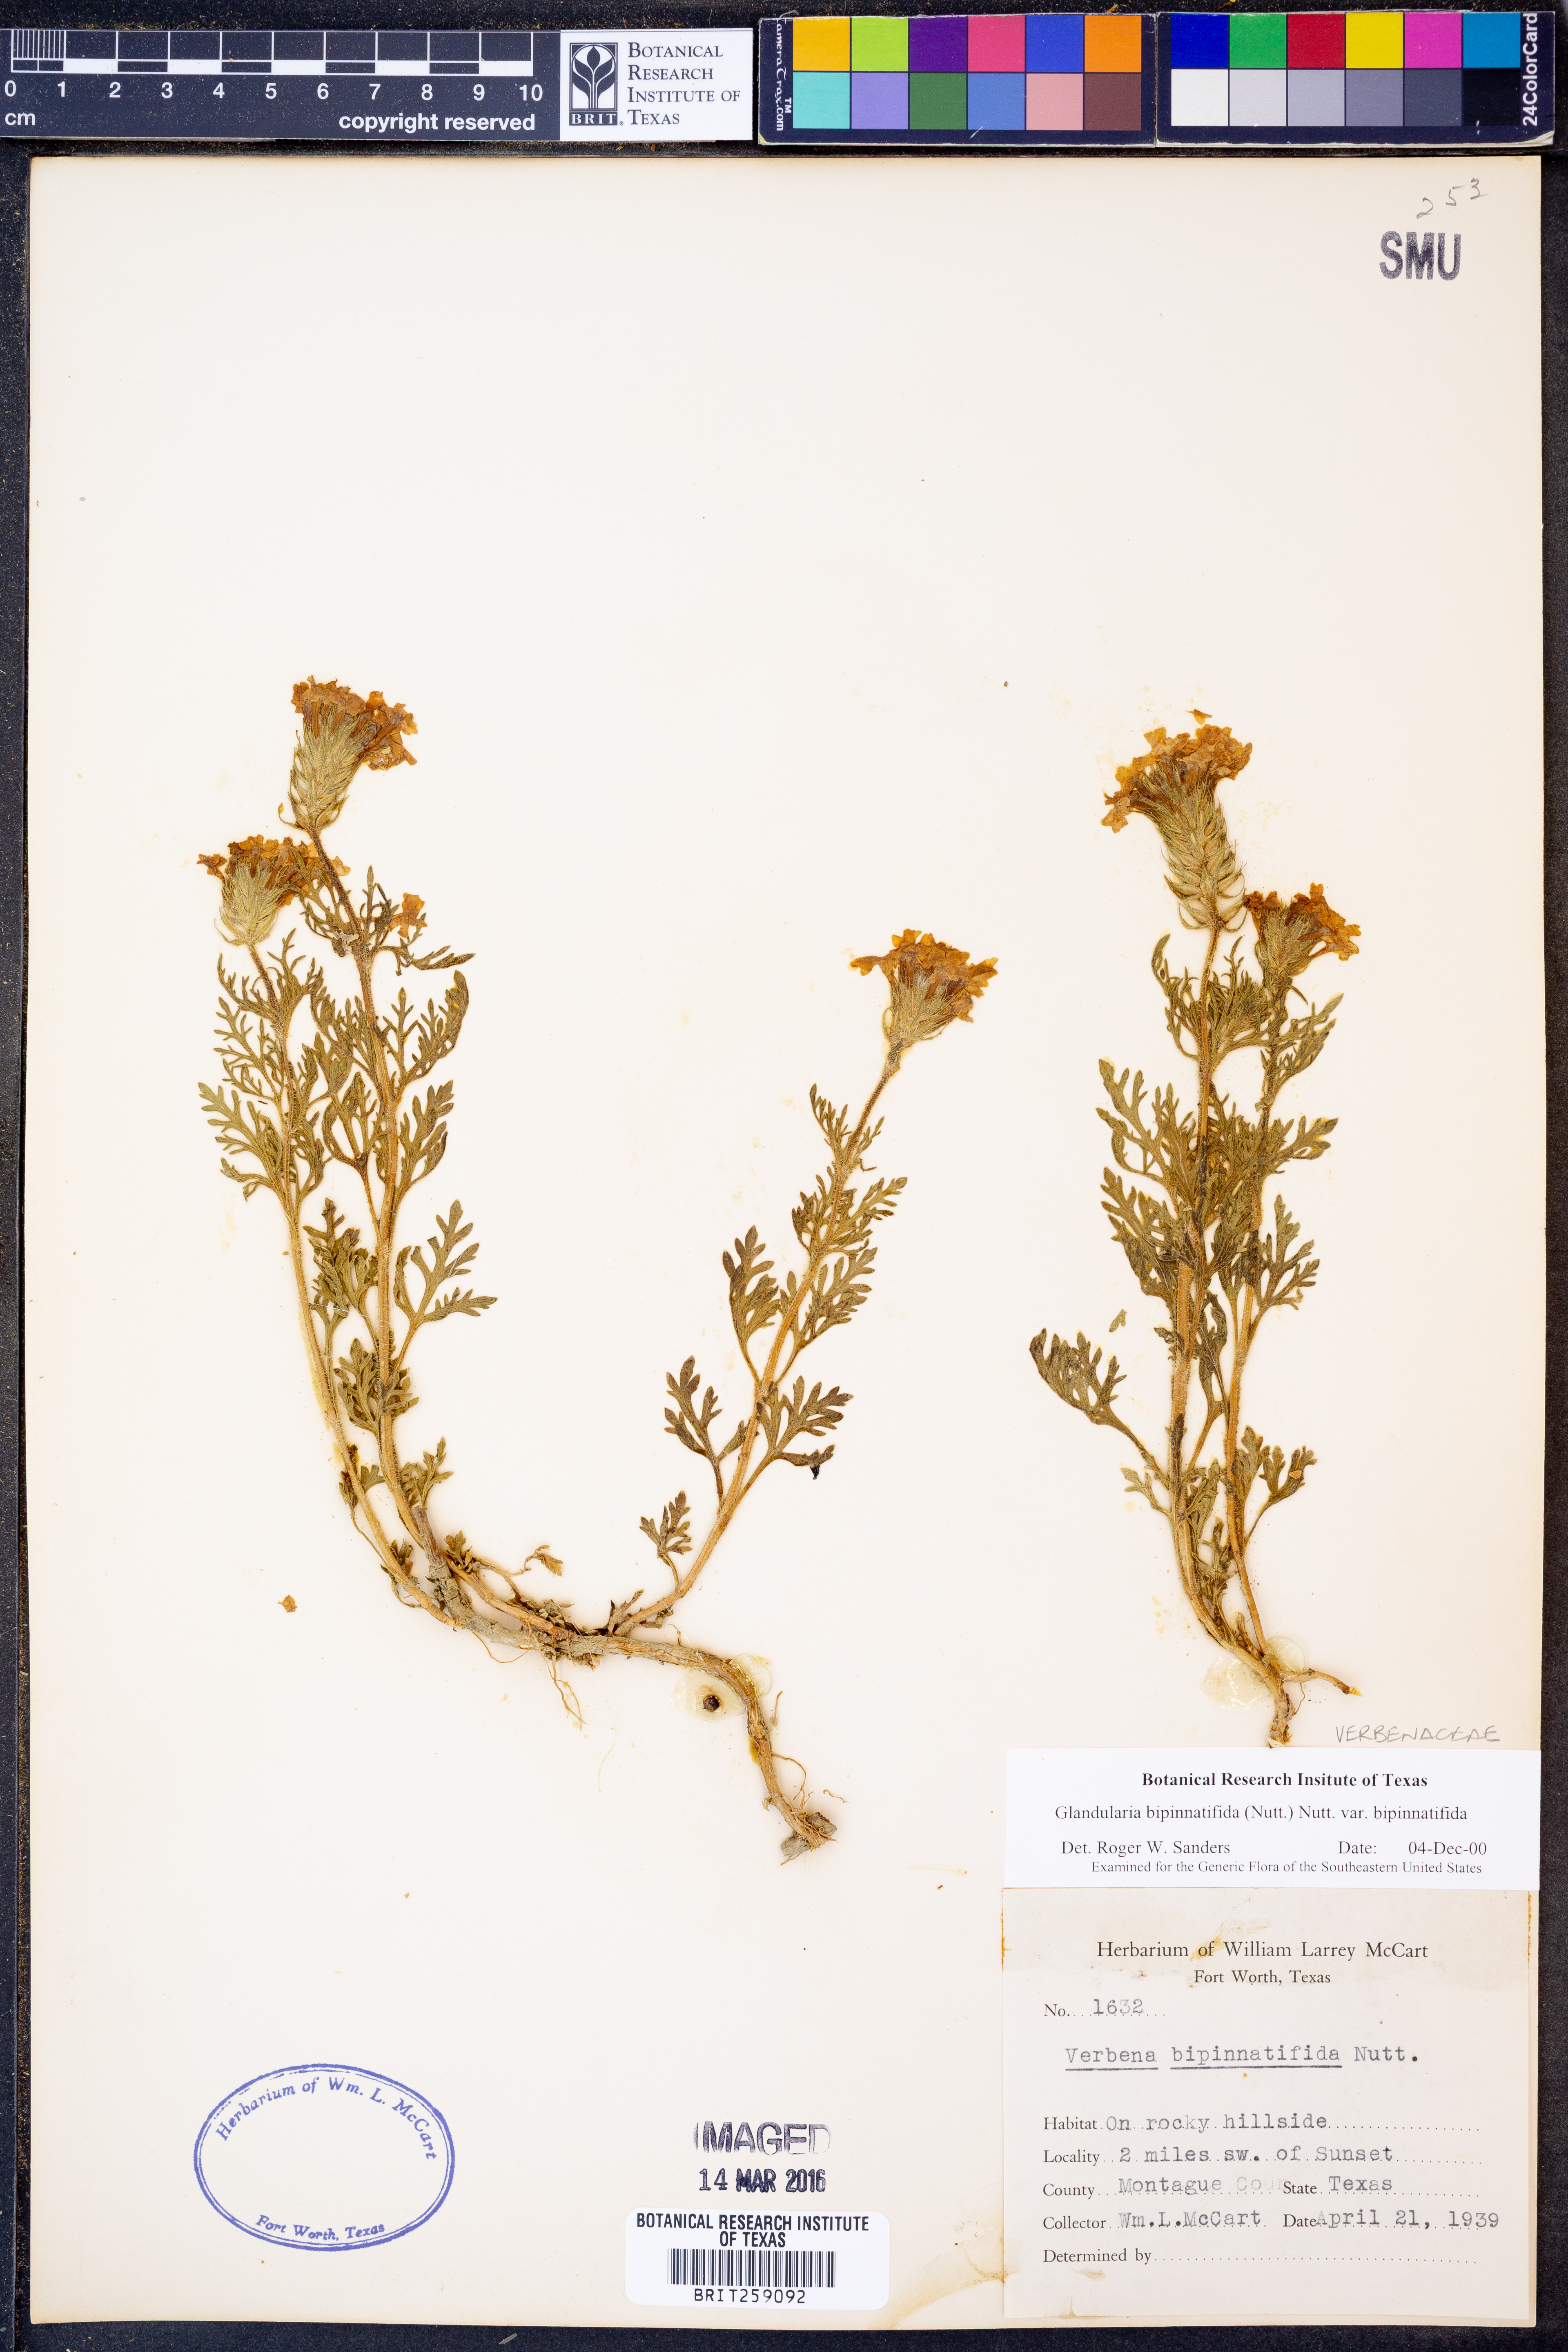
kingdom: Plantae
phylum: Tracheophyta
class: Magnoliopsida
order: Lamiales
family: Verbenaceae
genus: Verbena
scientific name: Verbena bipinnatifida
